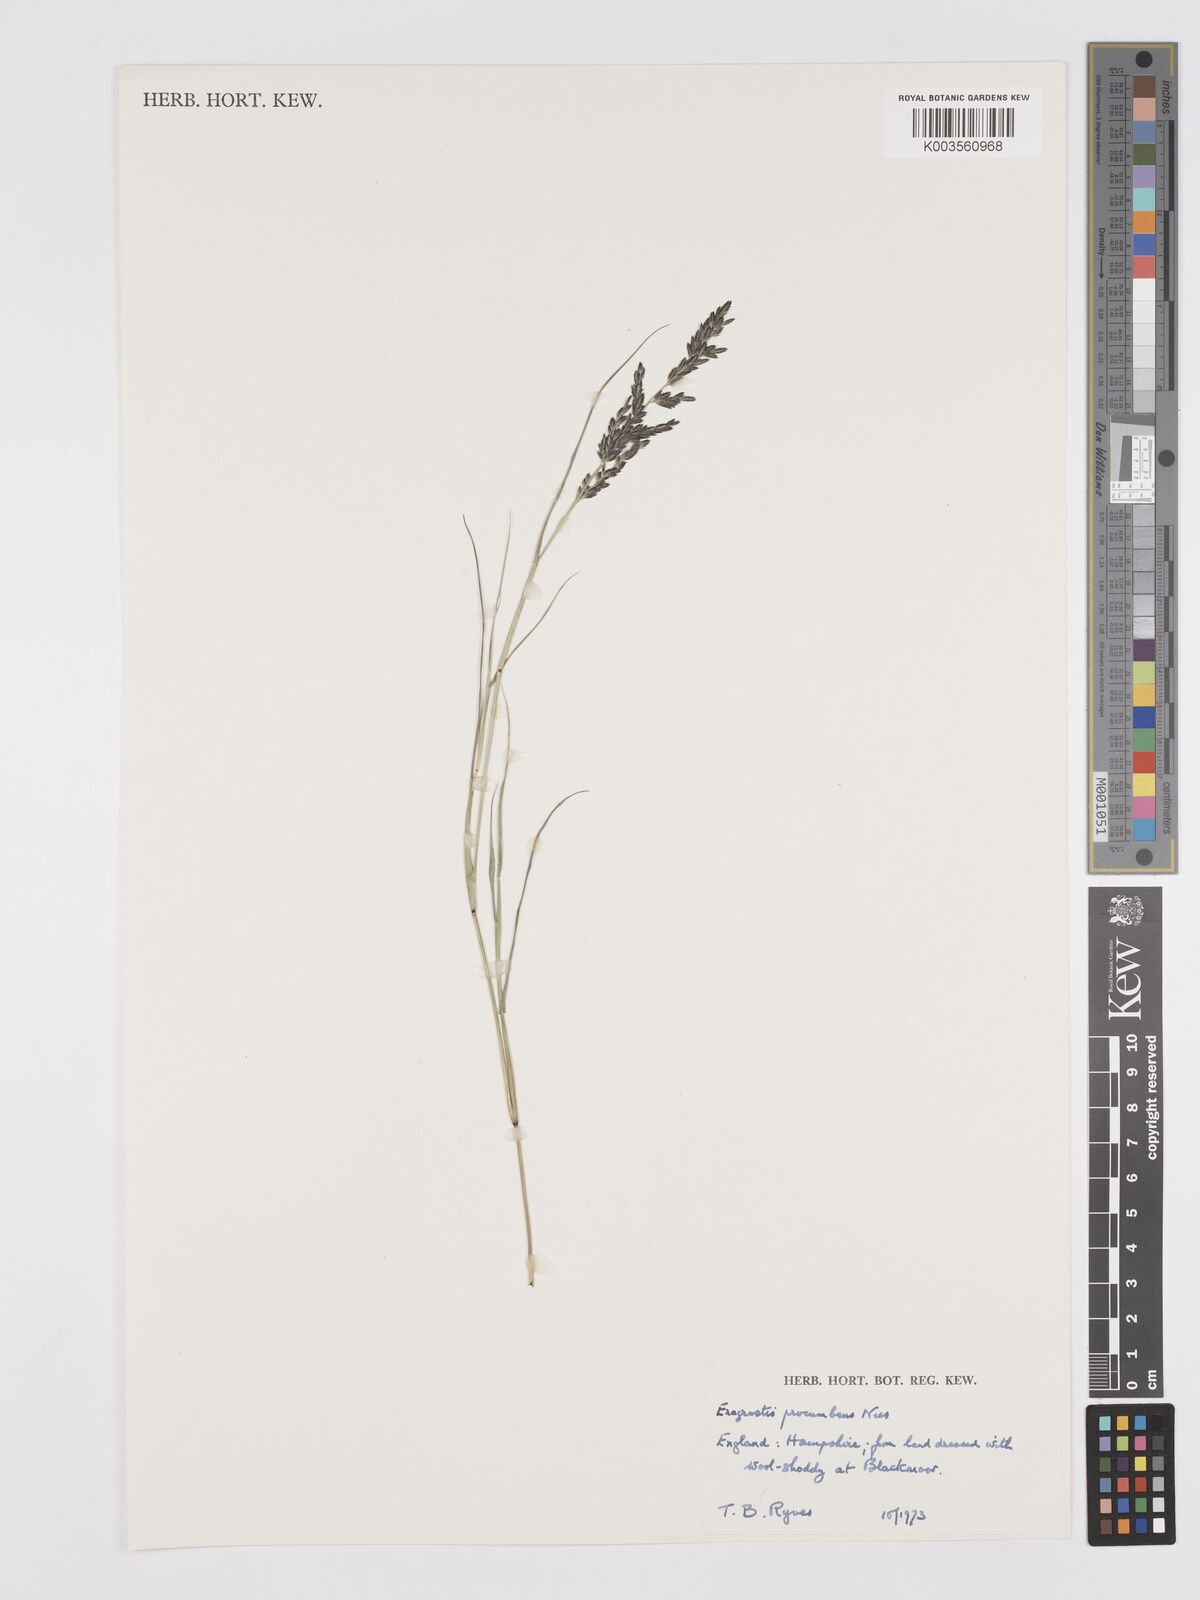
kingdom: Plantae
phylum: Tracheophyta
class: Liliopsida
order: Poales
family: Poaceae
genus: Eragrostis
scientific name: Eragrostis procumbens
